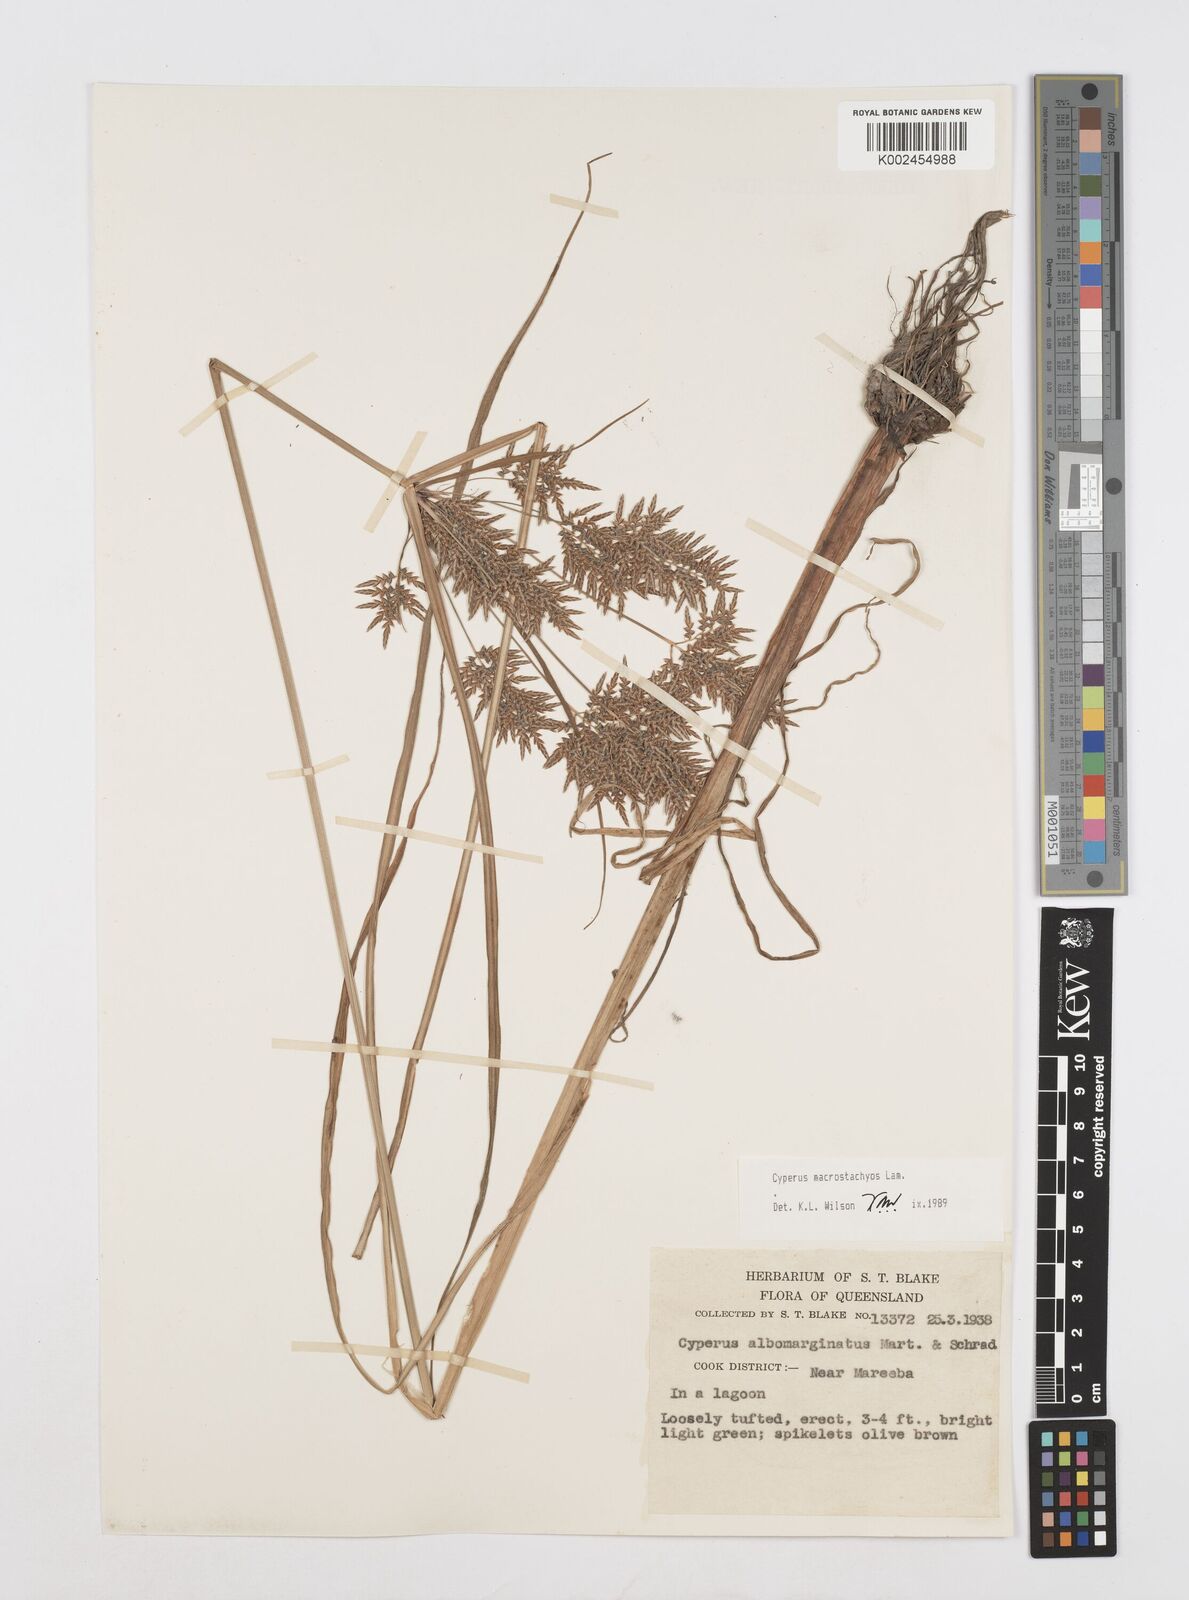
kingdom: Plantae
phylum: Tracheophyta
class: Liliopsida
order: Poales
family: Cyperaceae
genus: Cyperus
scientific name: Cyperus macrostachyos
